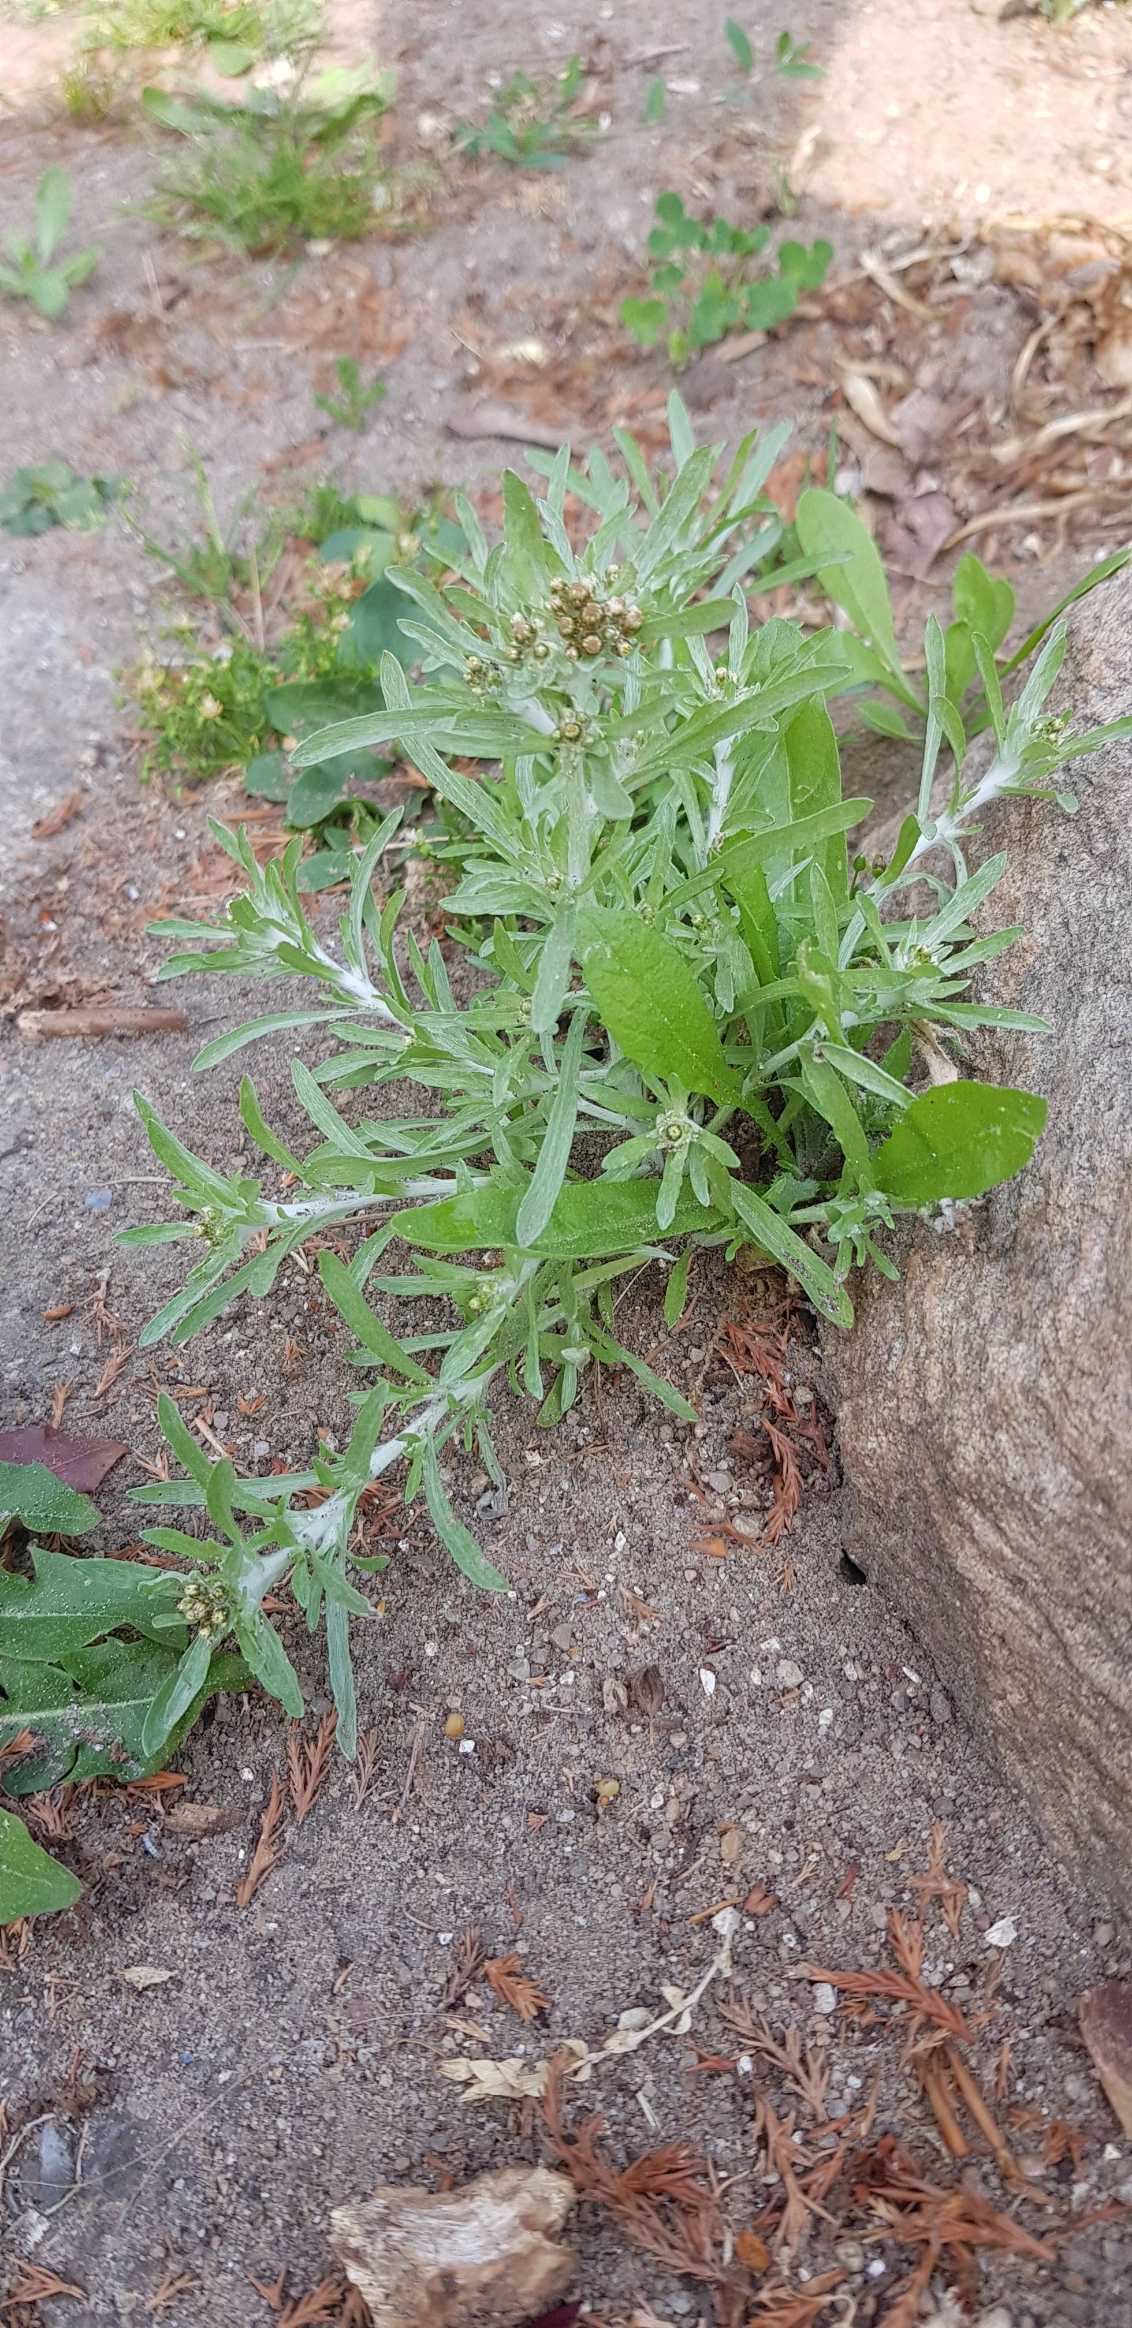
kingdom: Plantae
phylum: Tracheophyta
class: Magnoliopsida
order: Asterales
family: Asteraceae
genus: Gnaphalium
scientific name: Gnaphalium uliginosum
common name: Sump-evighedsblomst
